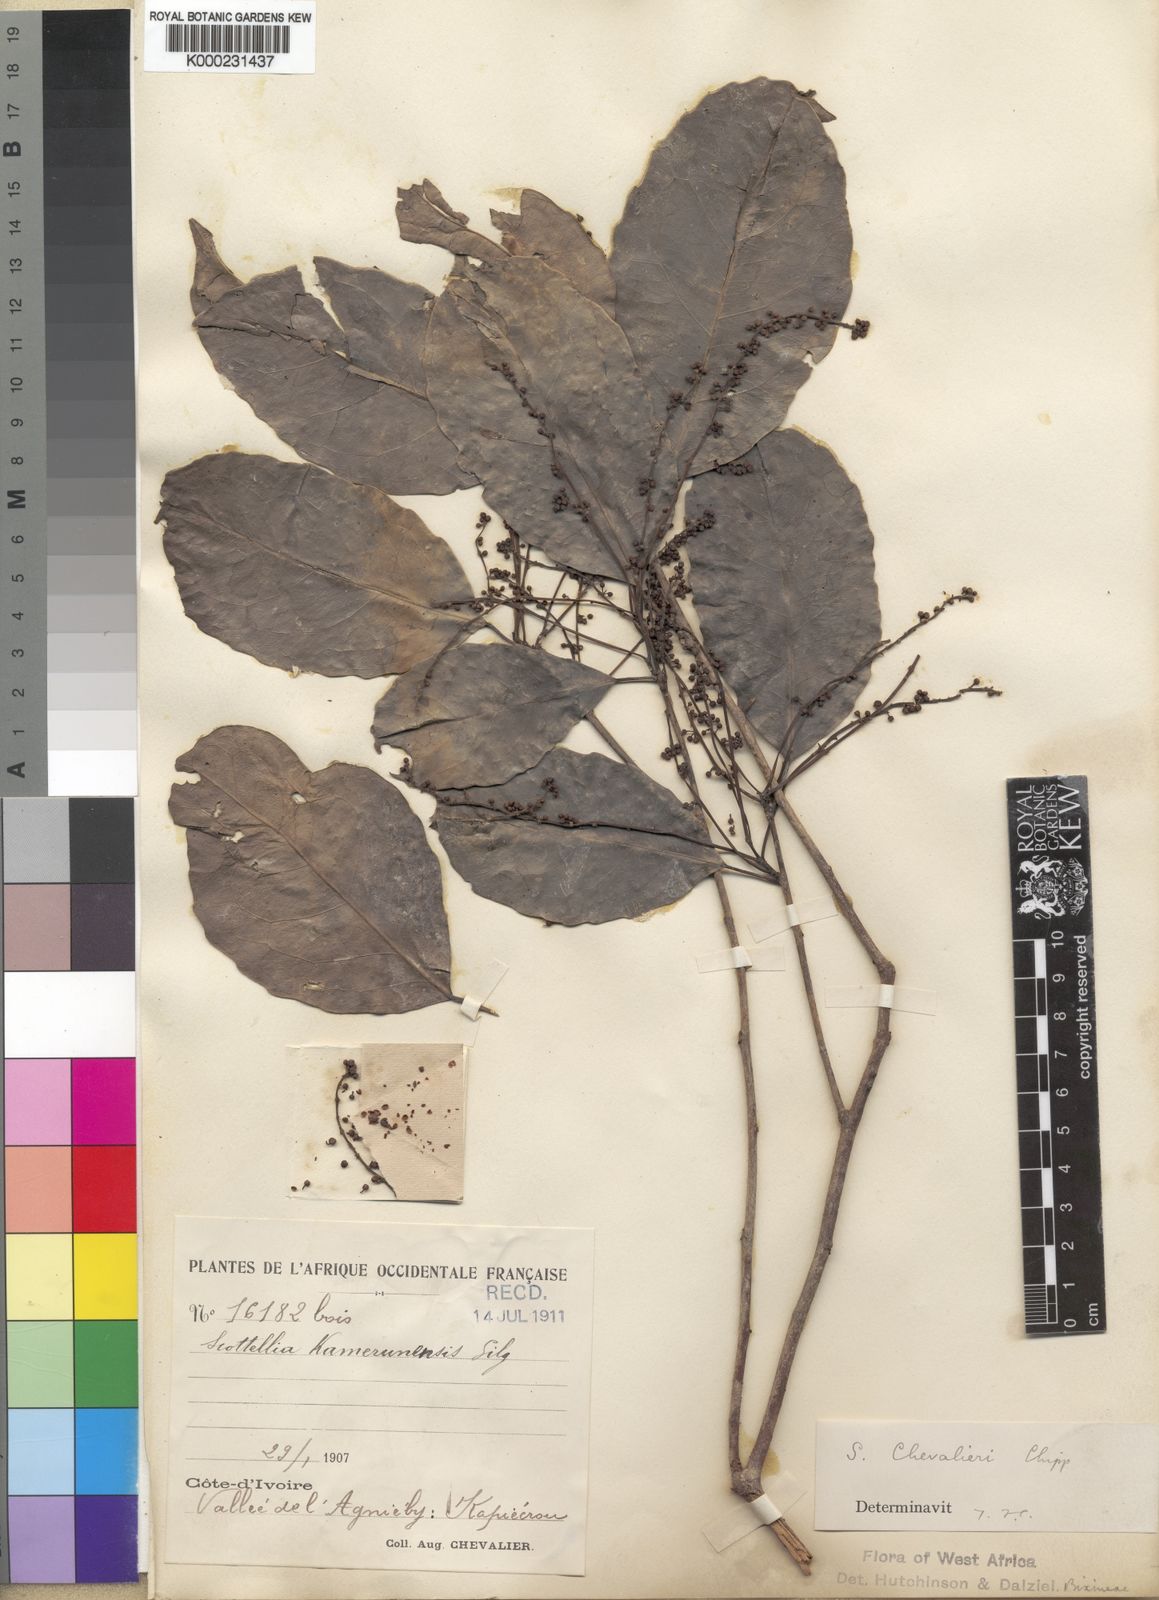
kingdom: Plantae
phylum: Tracheophyta
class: Magnoliopsida
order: Malpighiales
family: Achariaceae
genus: Scottellia
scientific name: Scottellia
